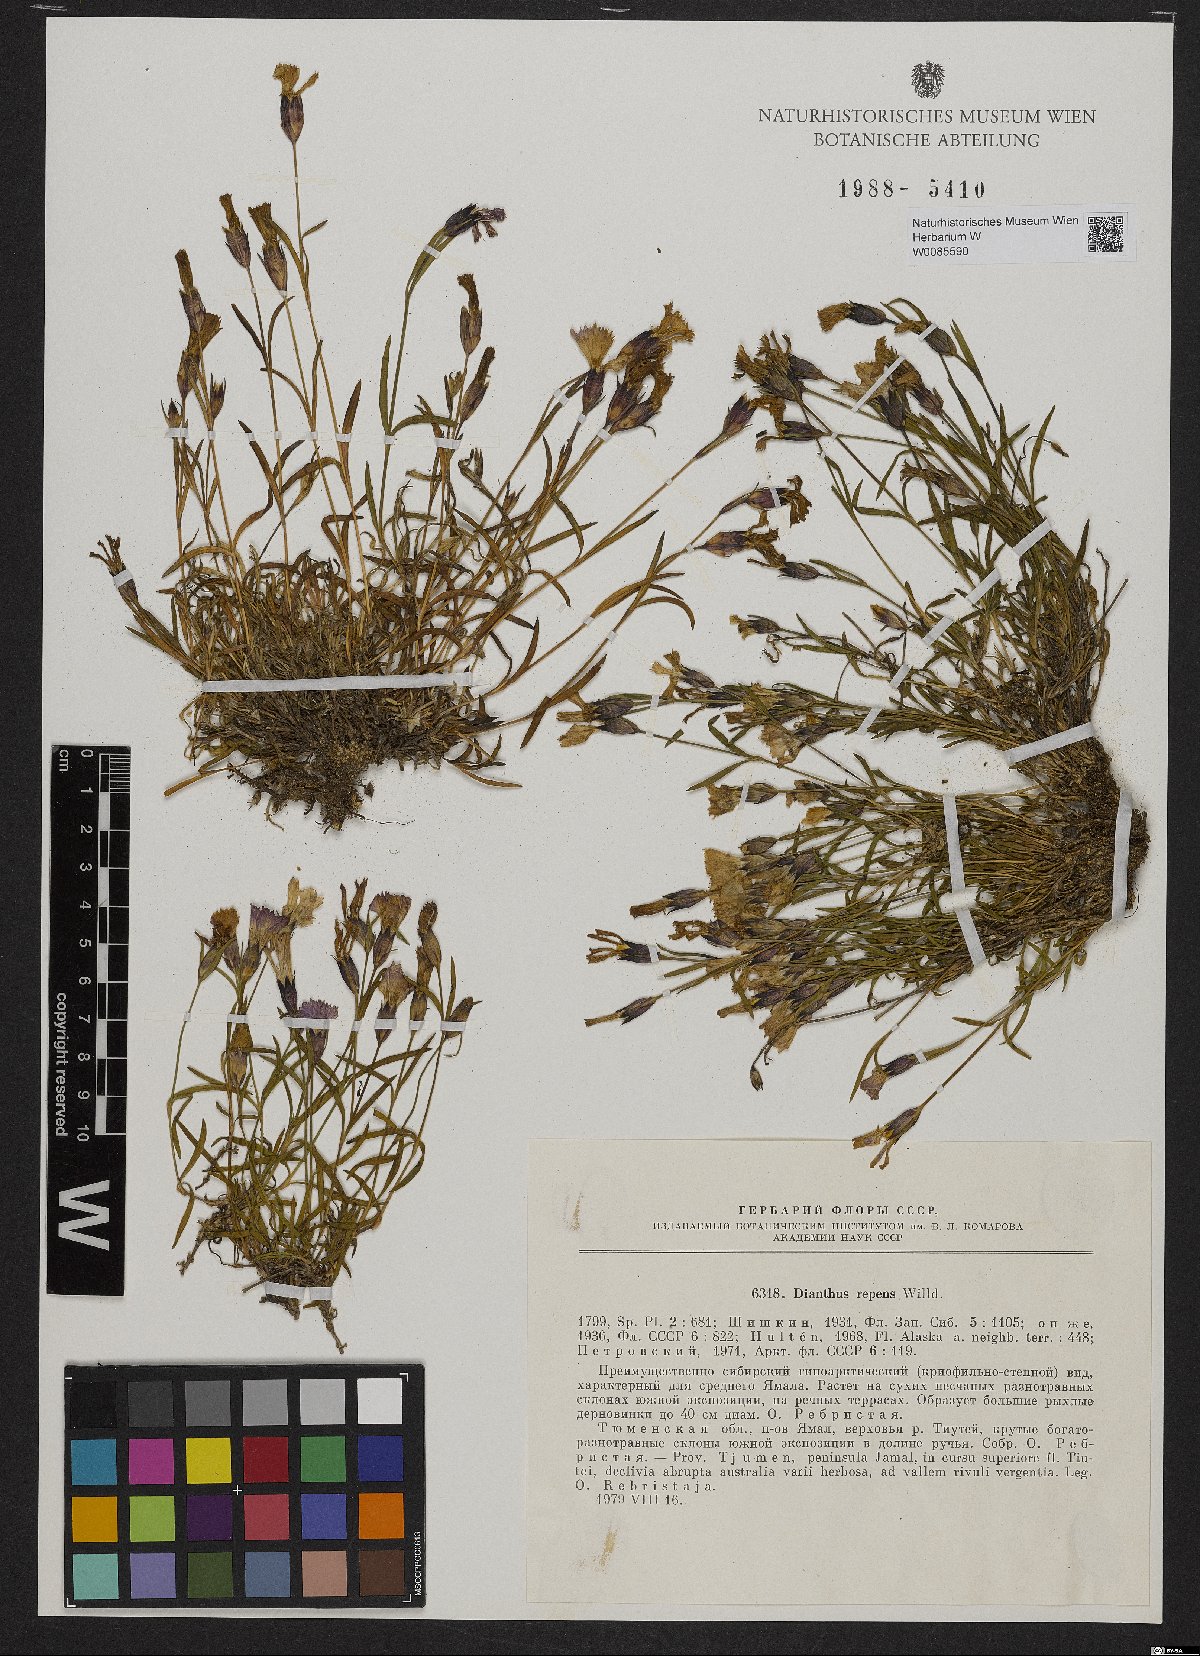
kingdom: Plantae
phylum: Tracheophyta
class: Magnoliopsida
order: Caryophyllales
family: Caryophyllaceae
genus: Dianthus
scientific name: Dianthus repens
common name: Northern pink
